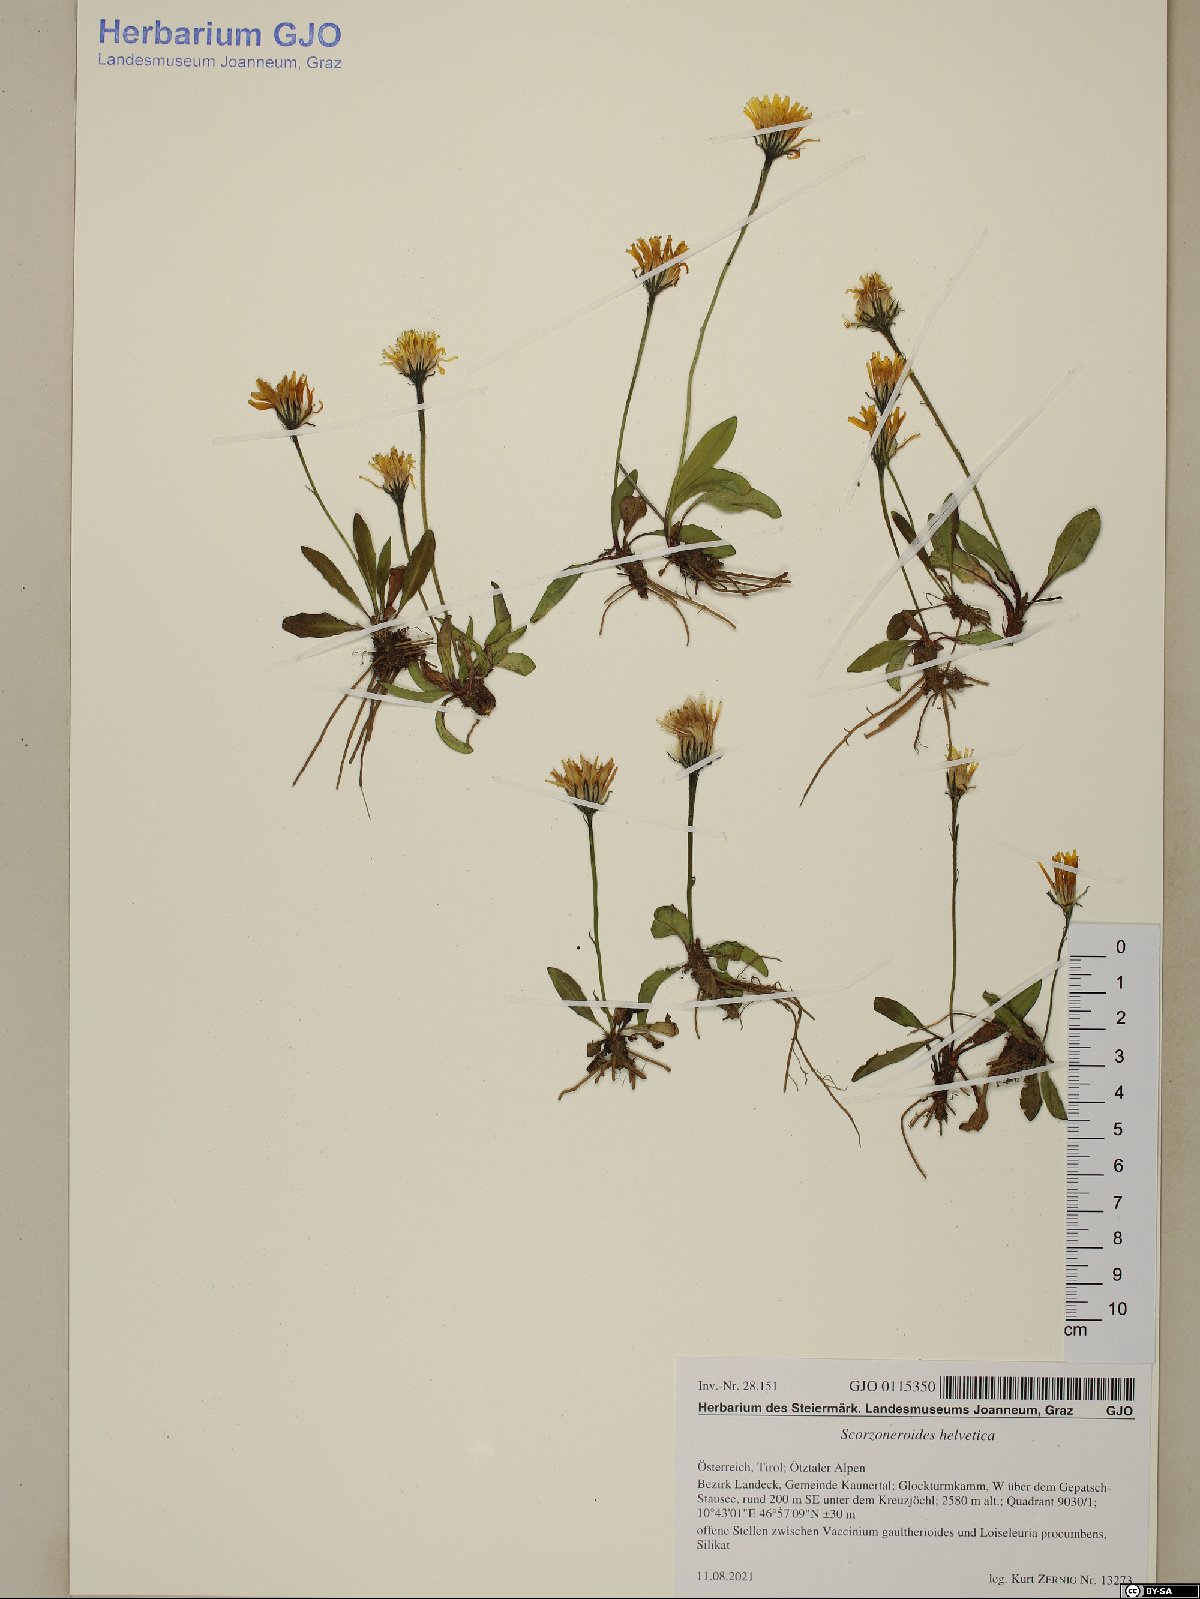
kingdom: Plantae
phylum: Tracheophyta
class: Magnoliopsida
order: Asterales
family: Asteraceae
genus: Scorzoneroides
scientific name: Scorzoneroides helvetica
